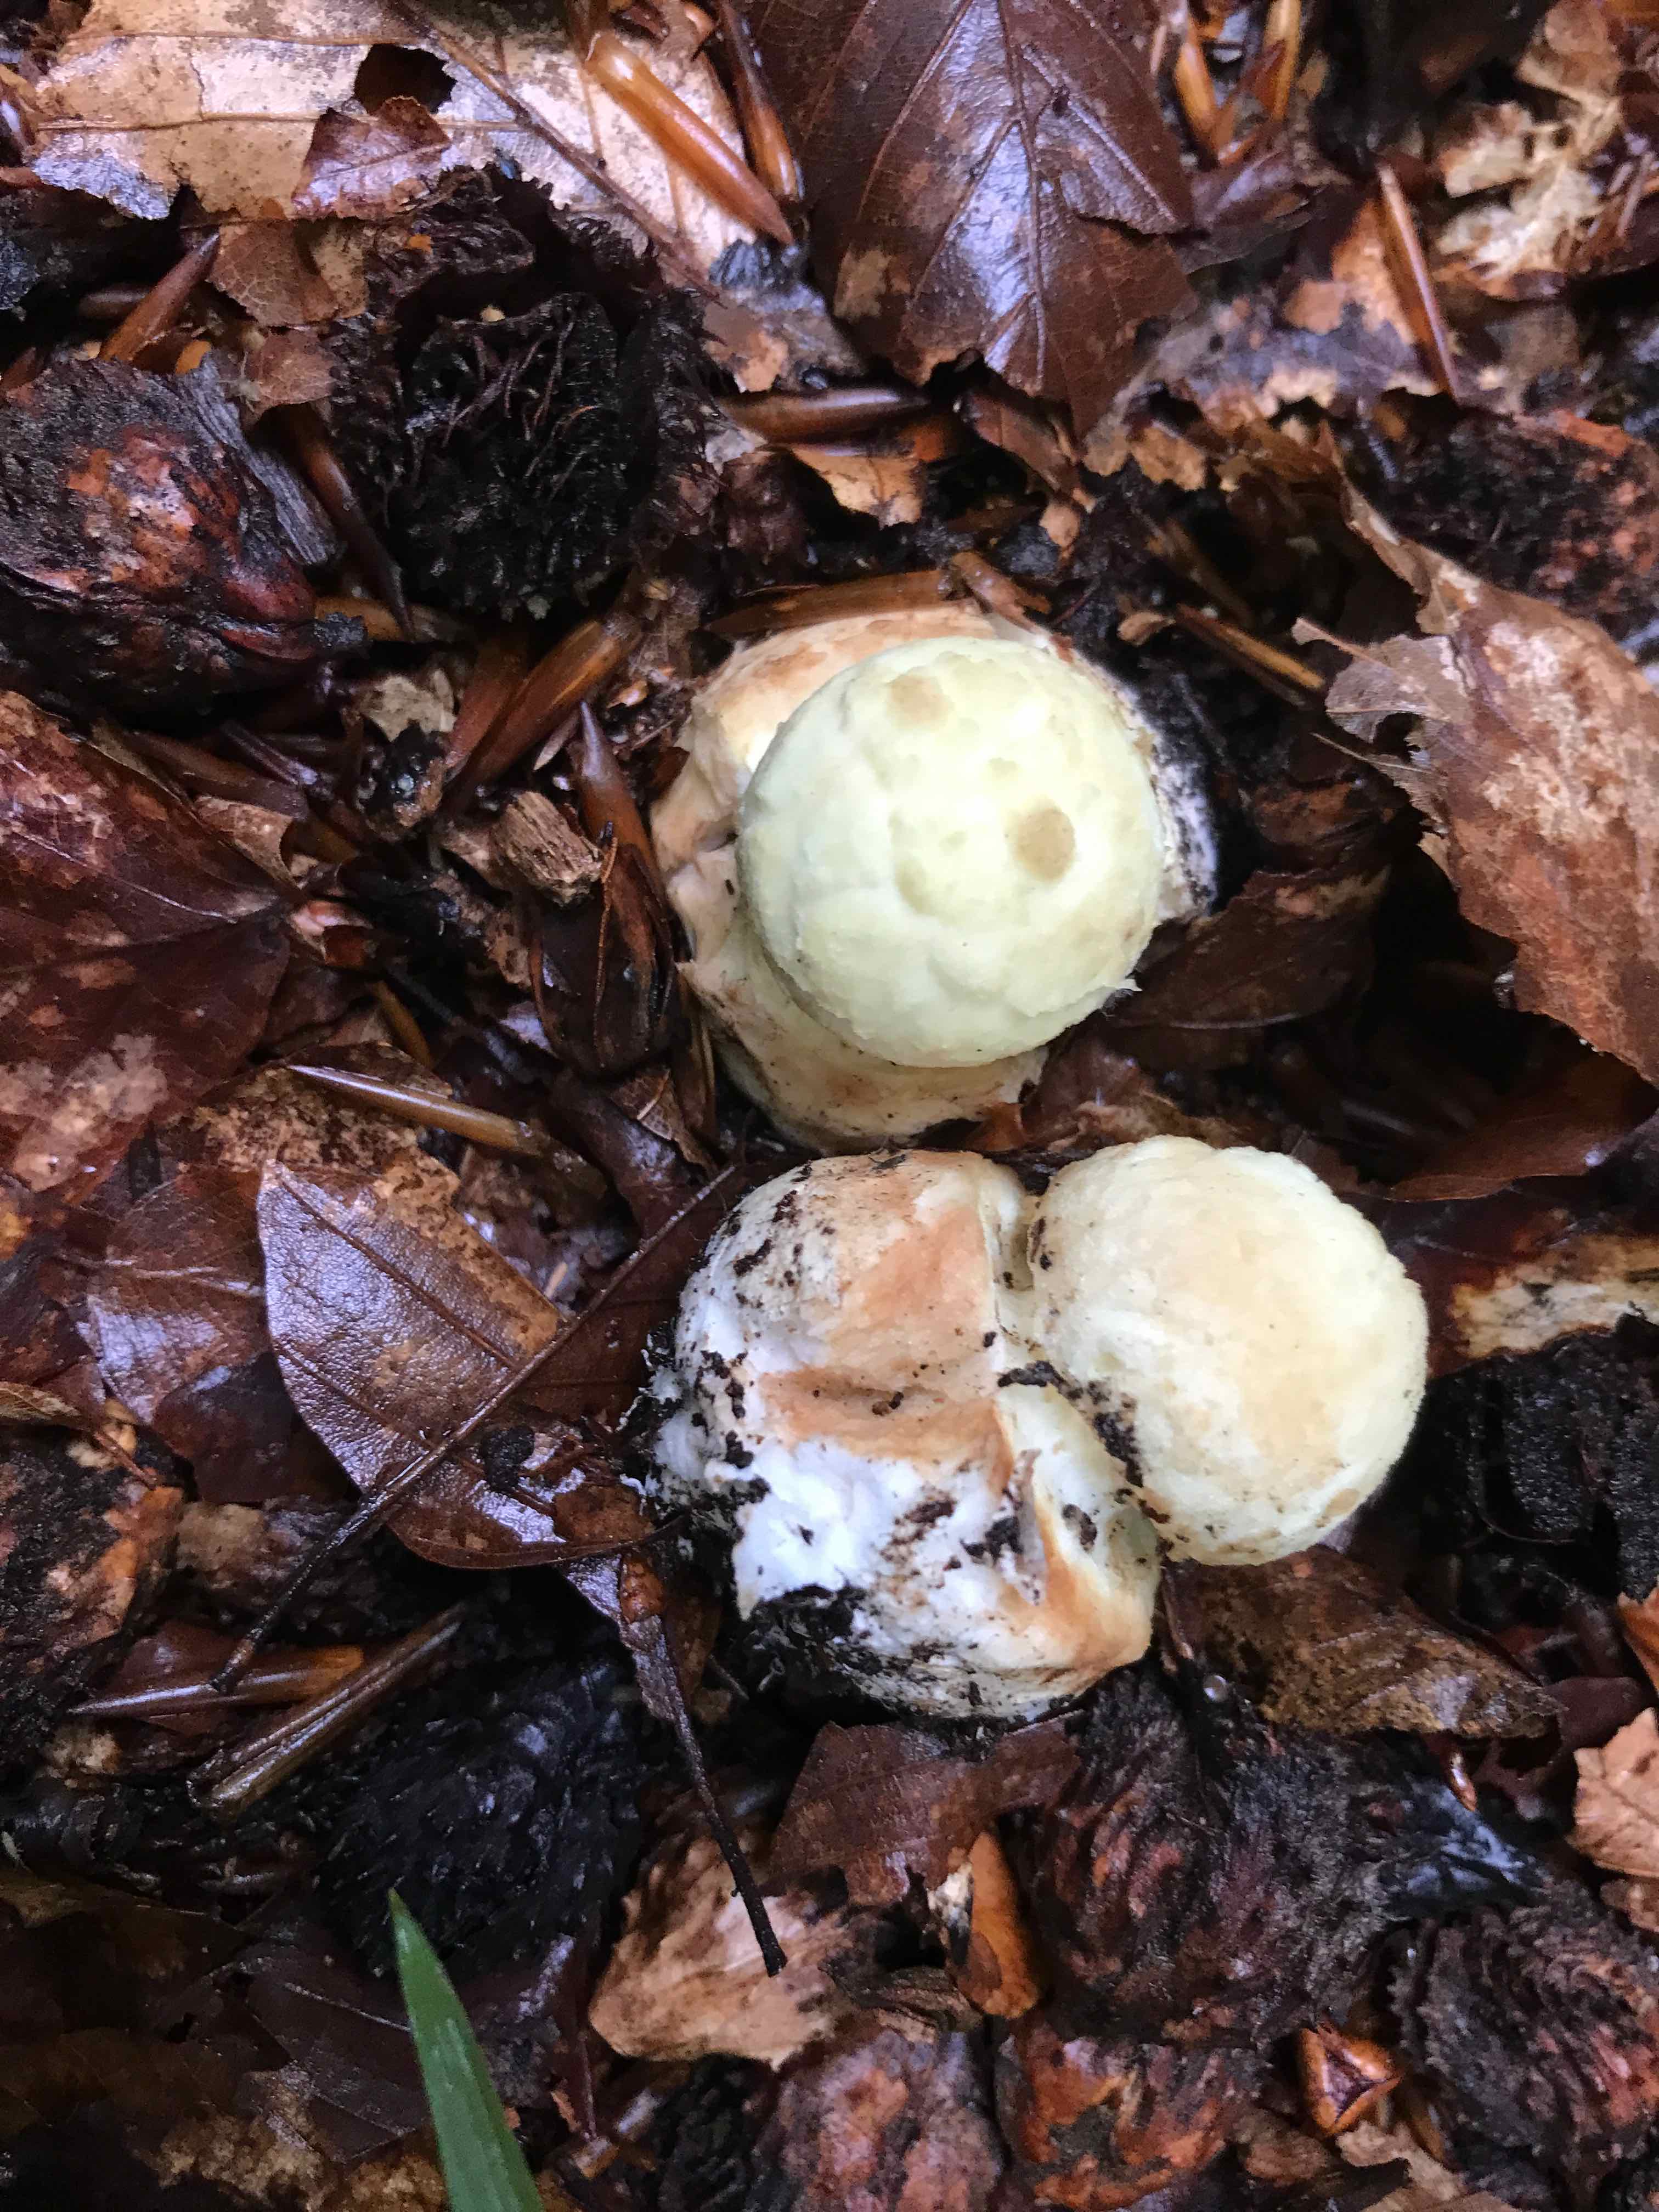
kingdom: Fungi
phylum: Basidiomycota
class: Agaricomycetes
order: Agaricales
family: Amanitaceae
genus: Amanita
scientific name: Amanita citrina
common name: kugleknoldet fluesvamp
